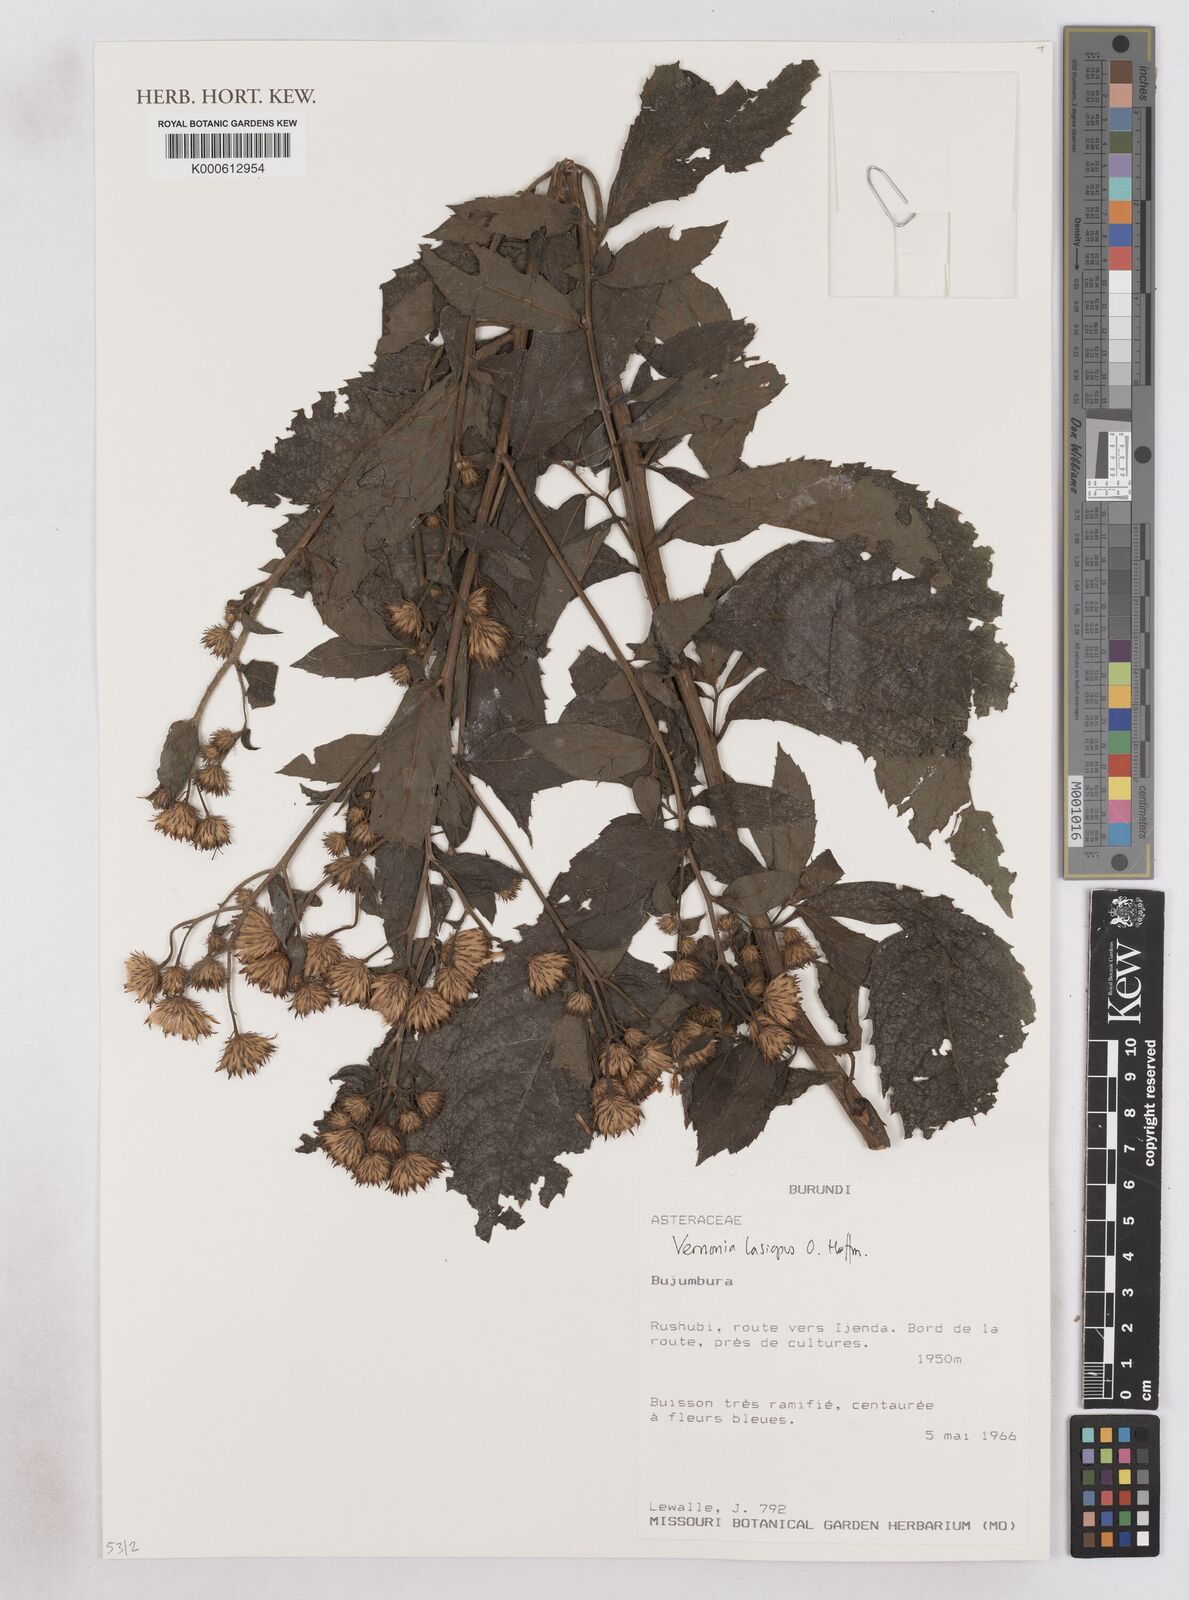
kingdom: Plantae
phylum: Tracheophyta
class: Magnoliopsida
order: Asterales
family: Asteraceae
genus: Baccharoides
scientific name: Baccharoides lasiopus
